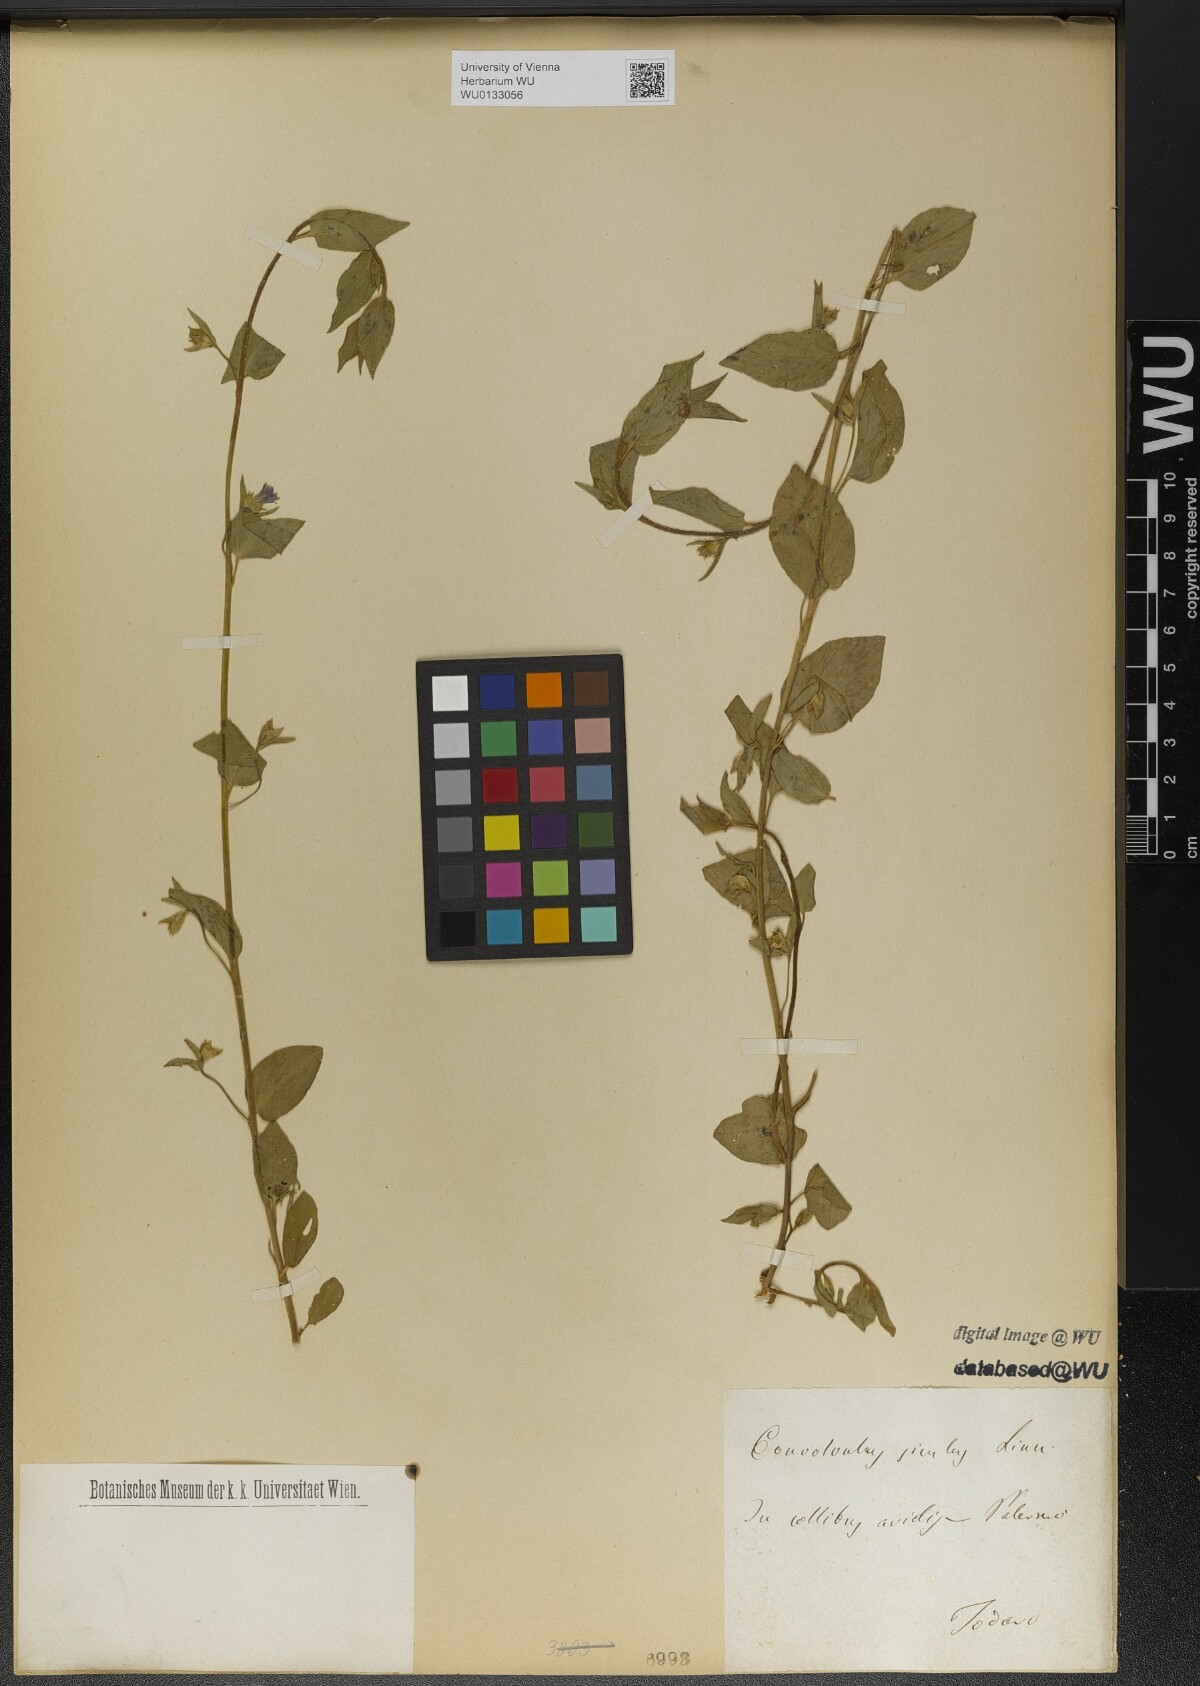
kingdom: Plantae
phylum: Tracheophyta
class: Magnoliopsida
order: Solanales
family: Convolvulaceae
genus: Convolvulus
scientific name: Convolvulus siculus
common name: Small blue-convolvulus
